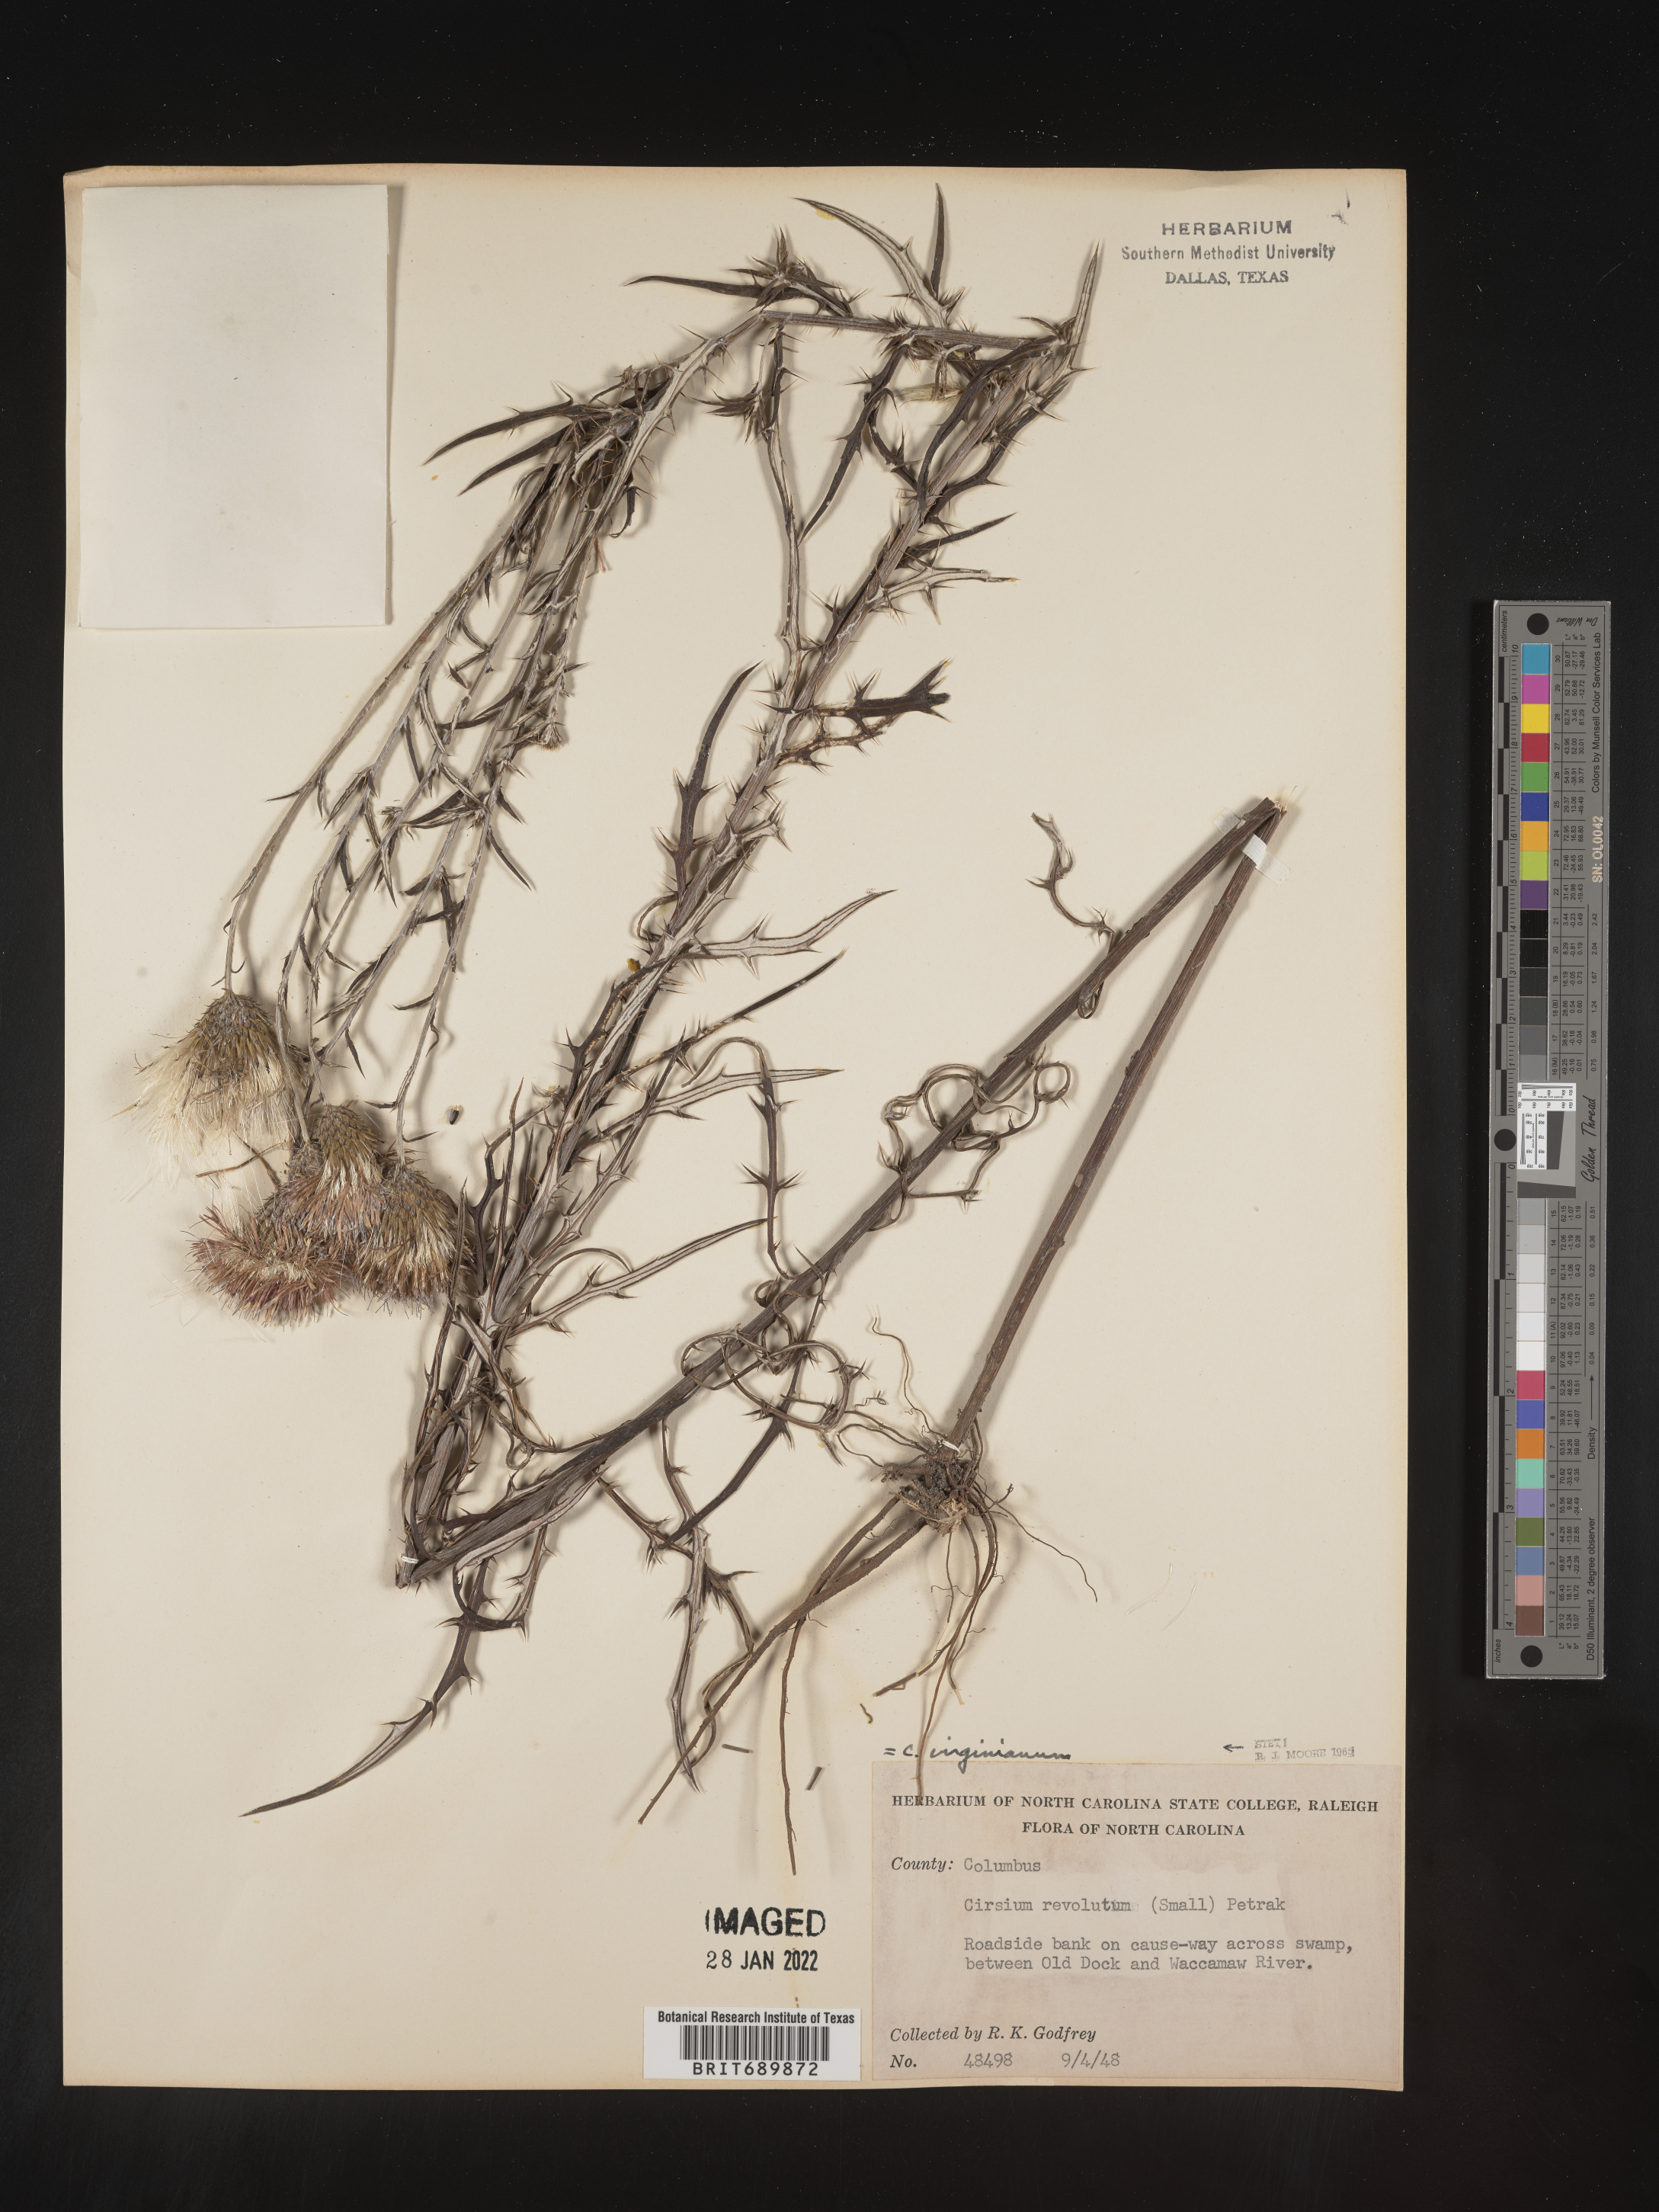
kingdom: Plantae
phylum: Tracheophyta
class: Magnoliopsida
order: Asterales
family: Asteraceae
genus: Cirsium
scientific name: Cirsium
